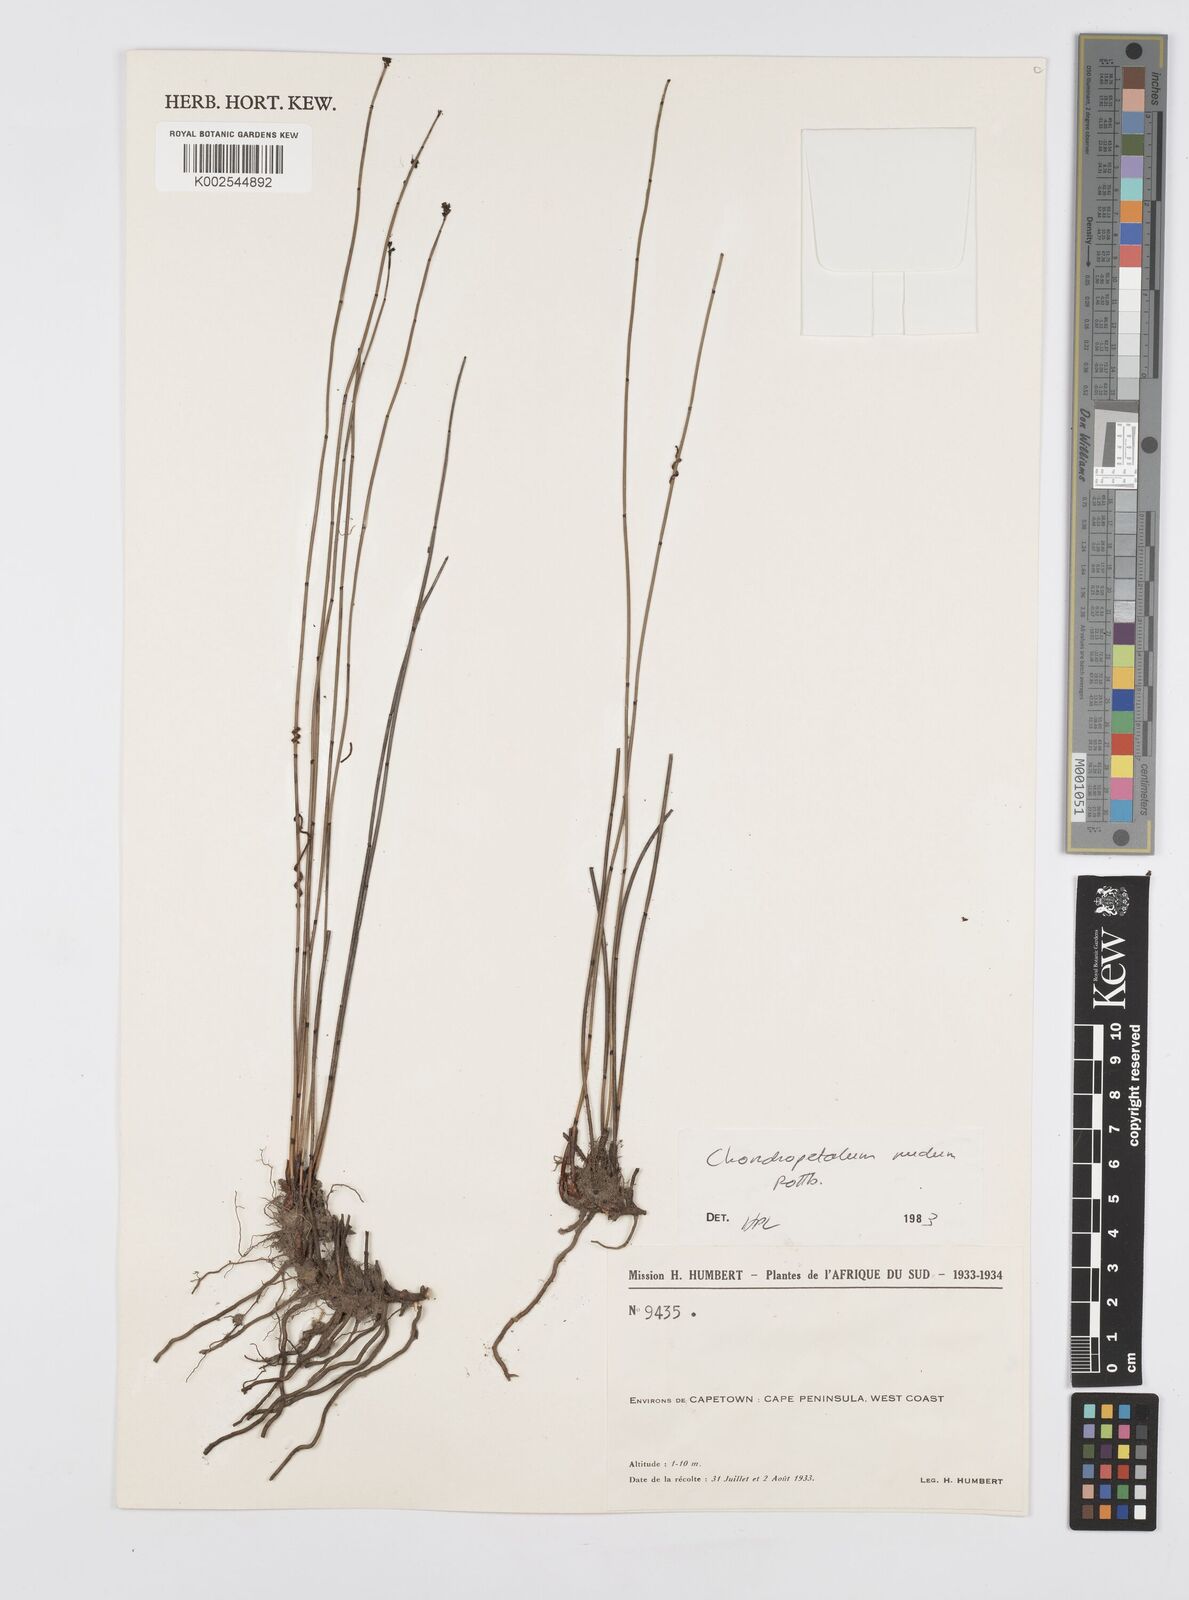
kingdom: Plantae
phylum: Tracheophyta
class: Liliopsida
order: Poales
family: Restionaceae
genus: Elegia
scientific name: Elegia nuda
